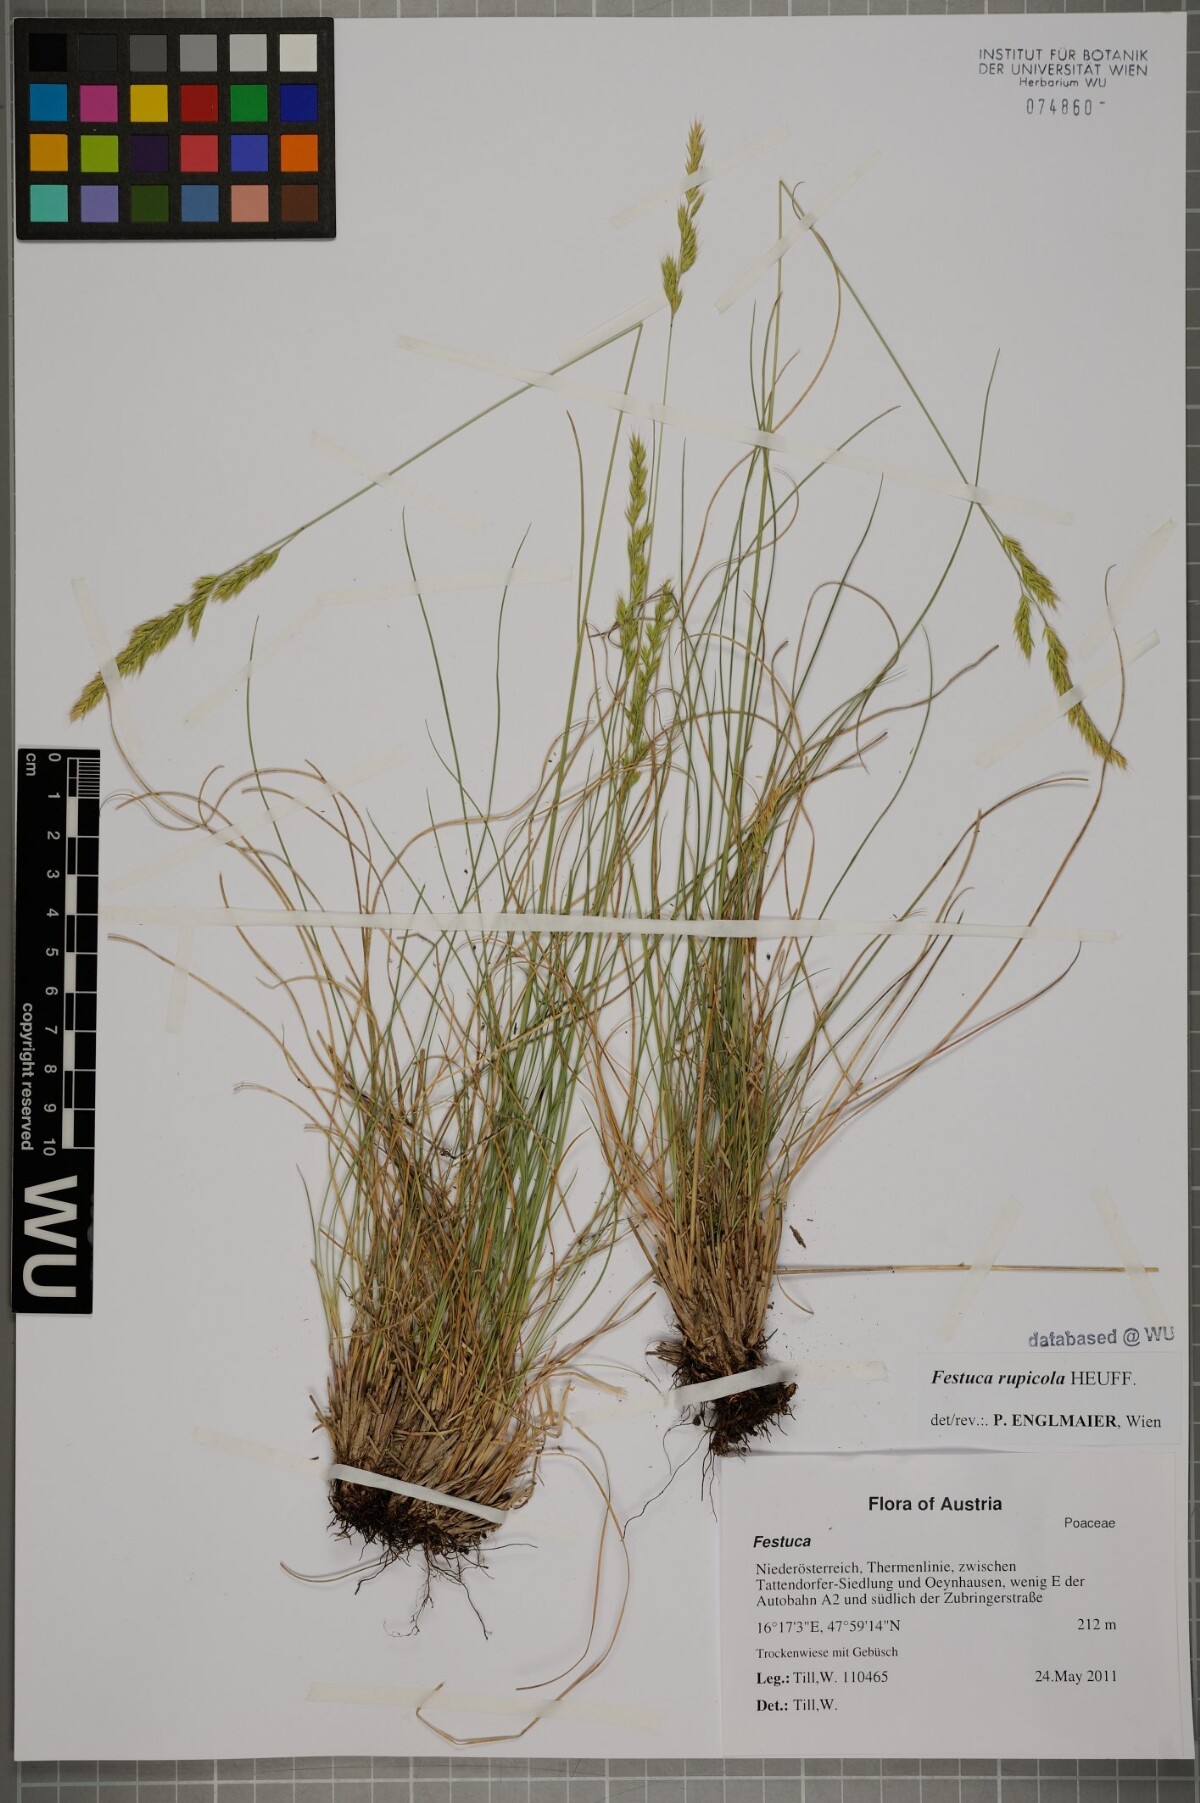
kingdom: Plantae
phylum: Tracheophyta
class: Liliopsida
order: Poales
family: Poaceae
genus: Festuca
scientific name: Festuca rupicola
